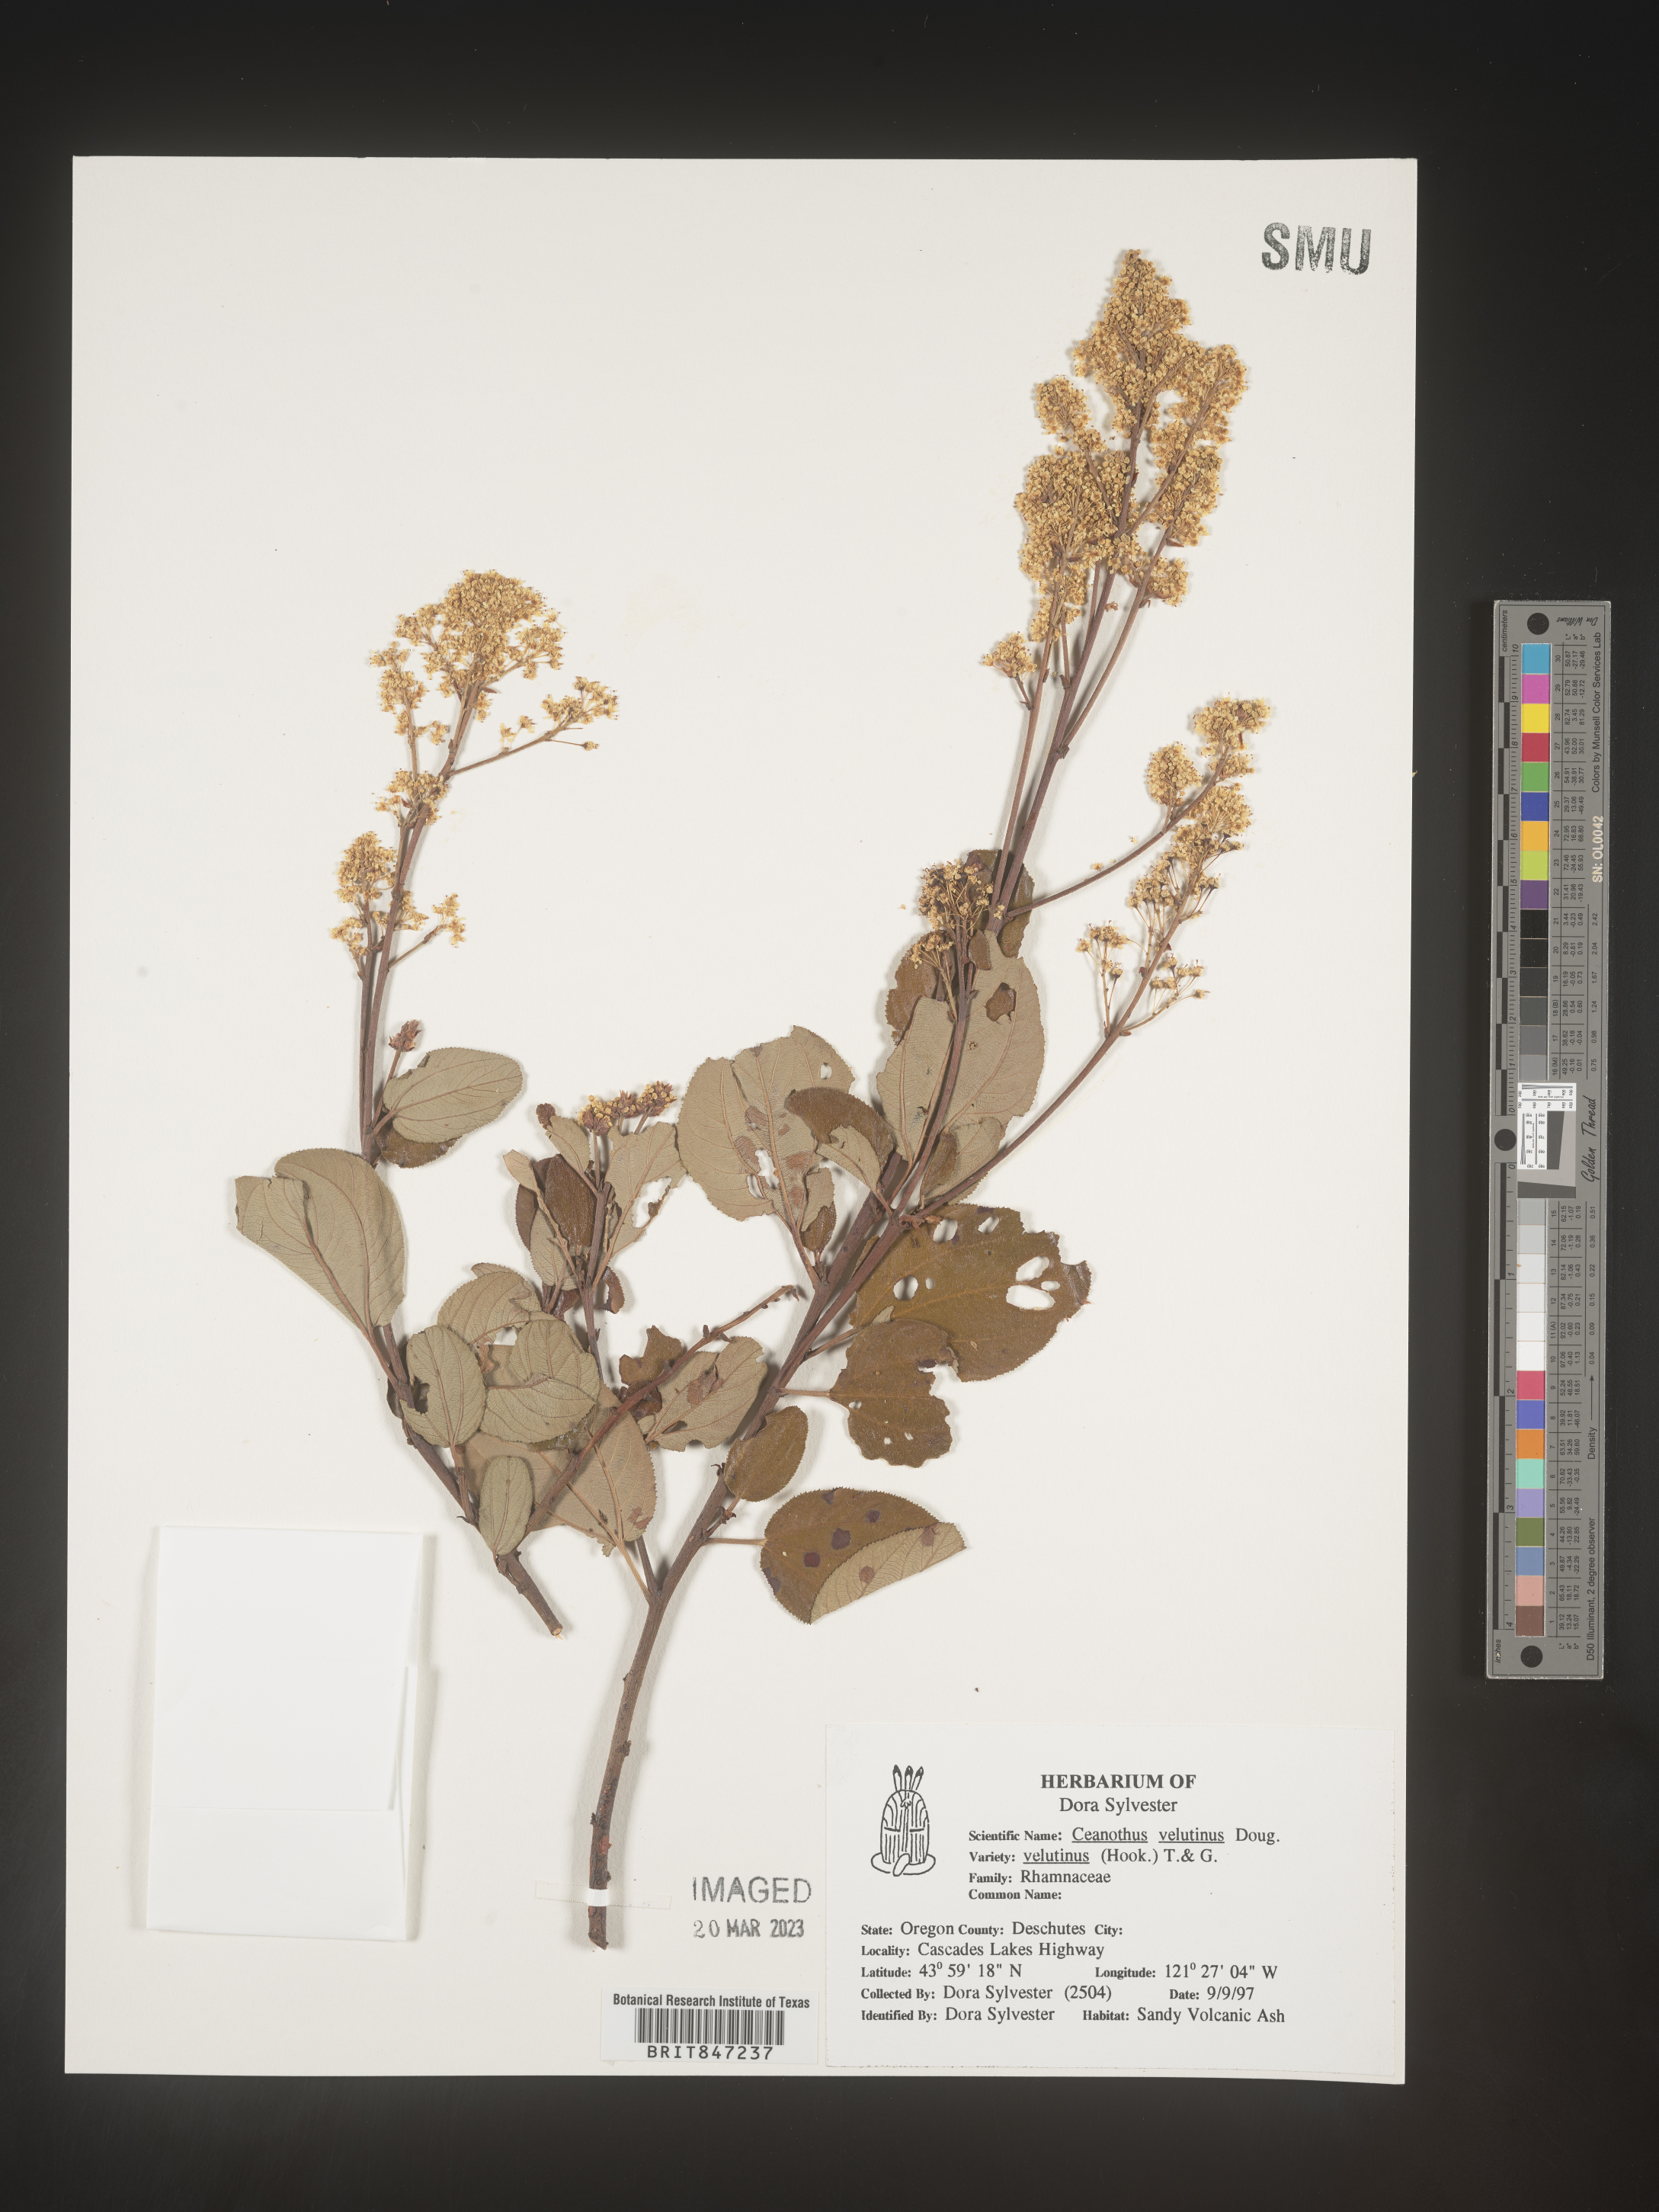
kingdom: Plantae
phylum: Tracheophyta
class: Magnoliopsida
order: Rosales
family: Rhamnaceae
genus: Ceanothus
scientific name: Ceanothus velutinus
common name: Snowbrush
